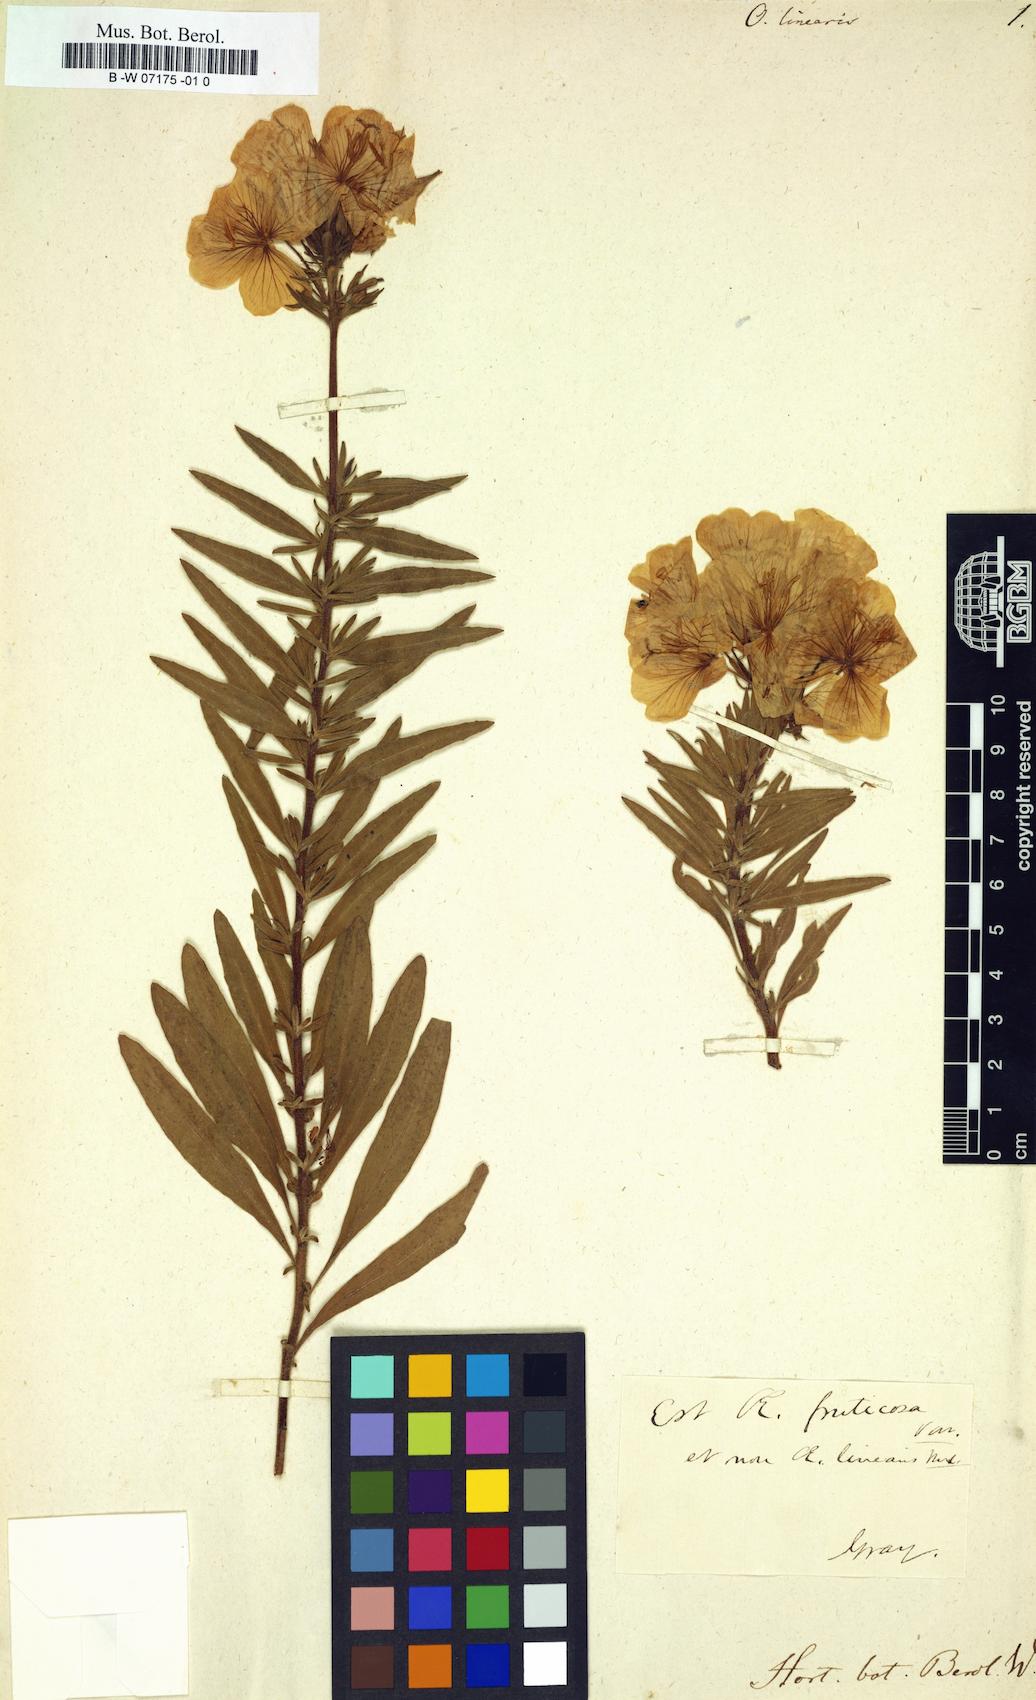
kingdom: Plantae
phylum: Tracheophyta
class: Magnoliopsida
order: Myrtales
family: Onagraceae
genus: Oenothera
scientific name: Oenothera fruticosa
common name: Southern sundrops
